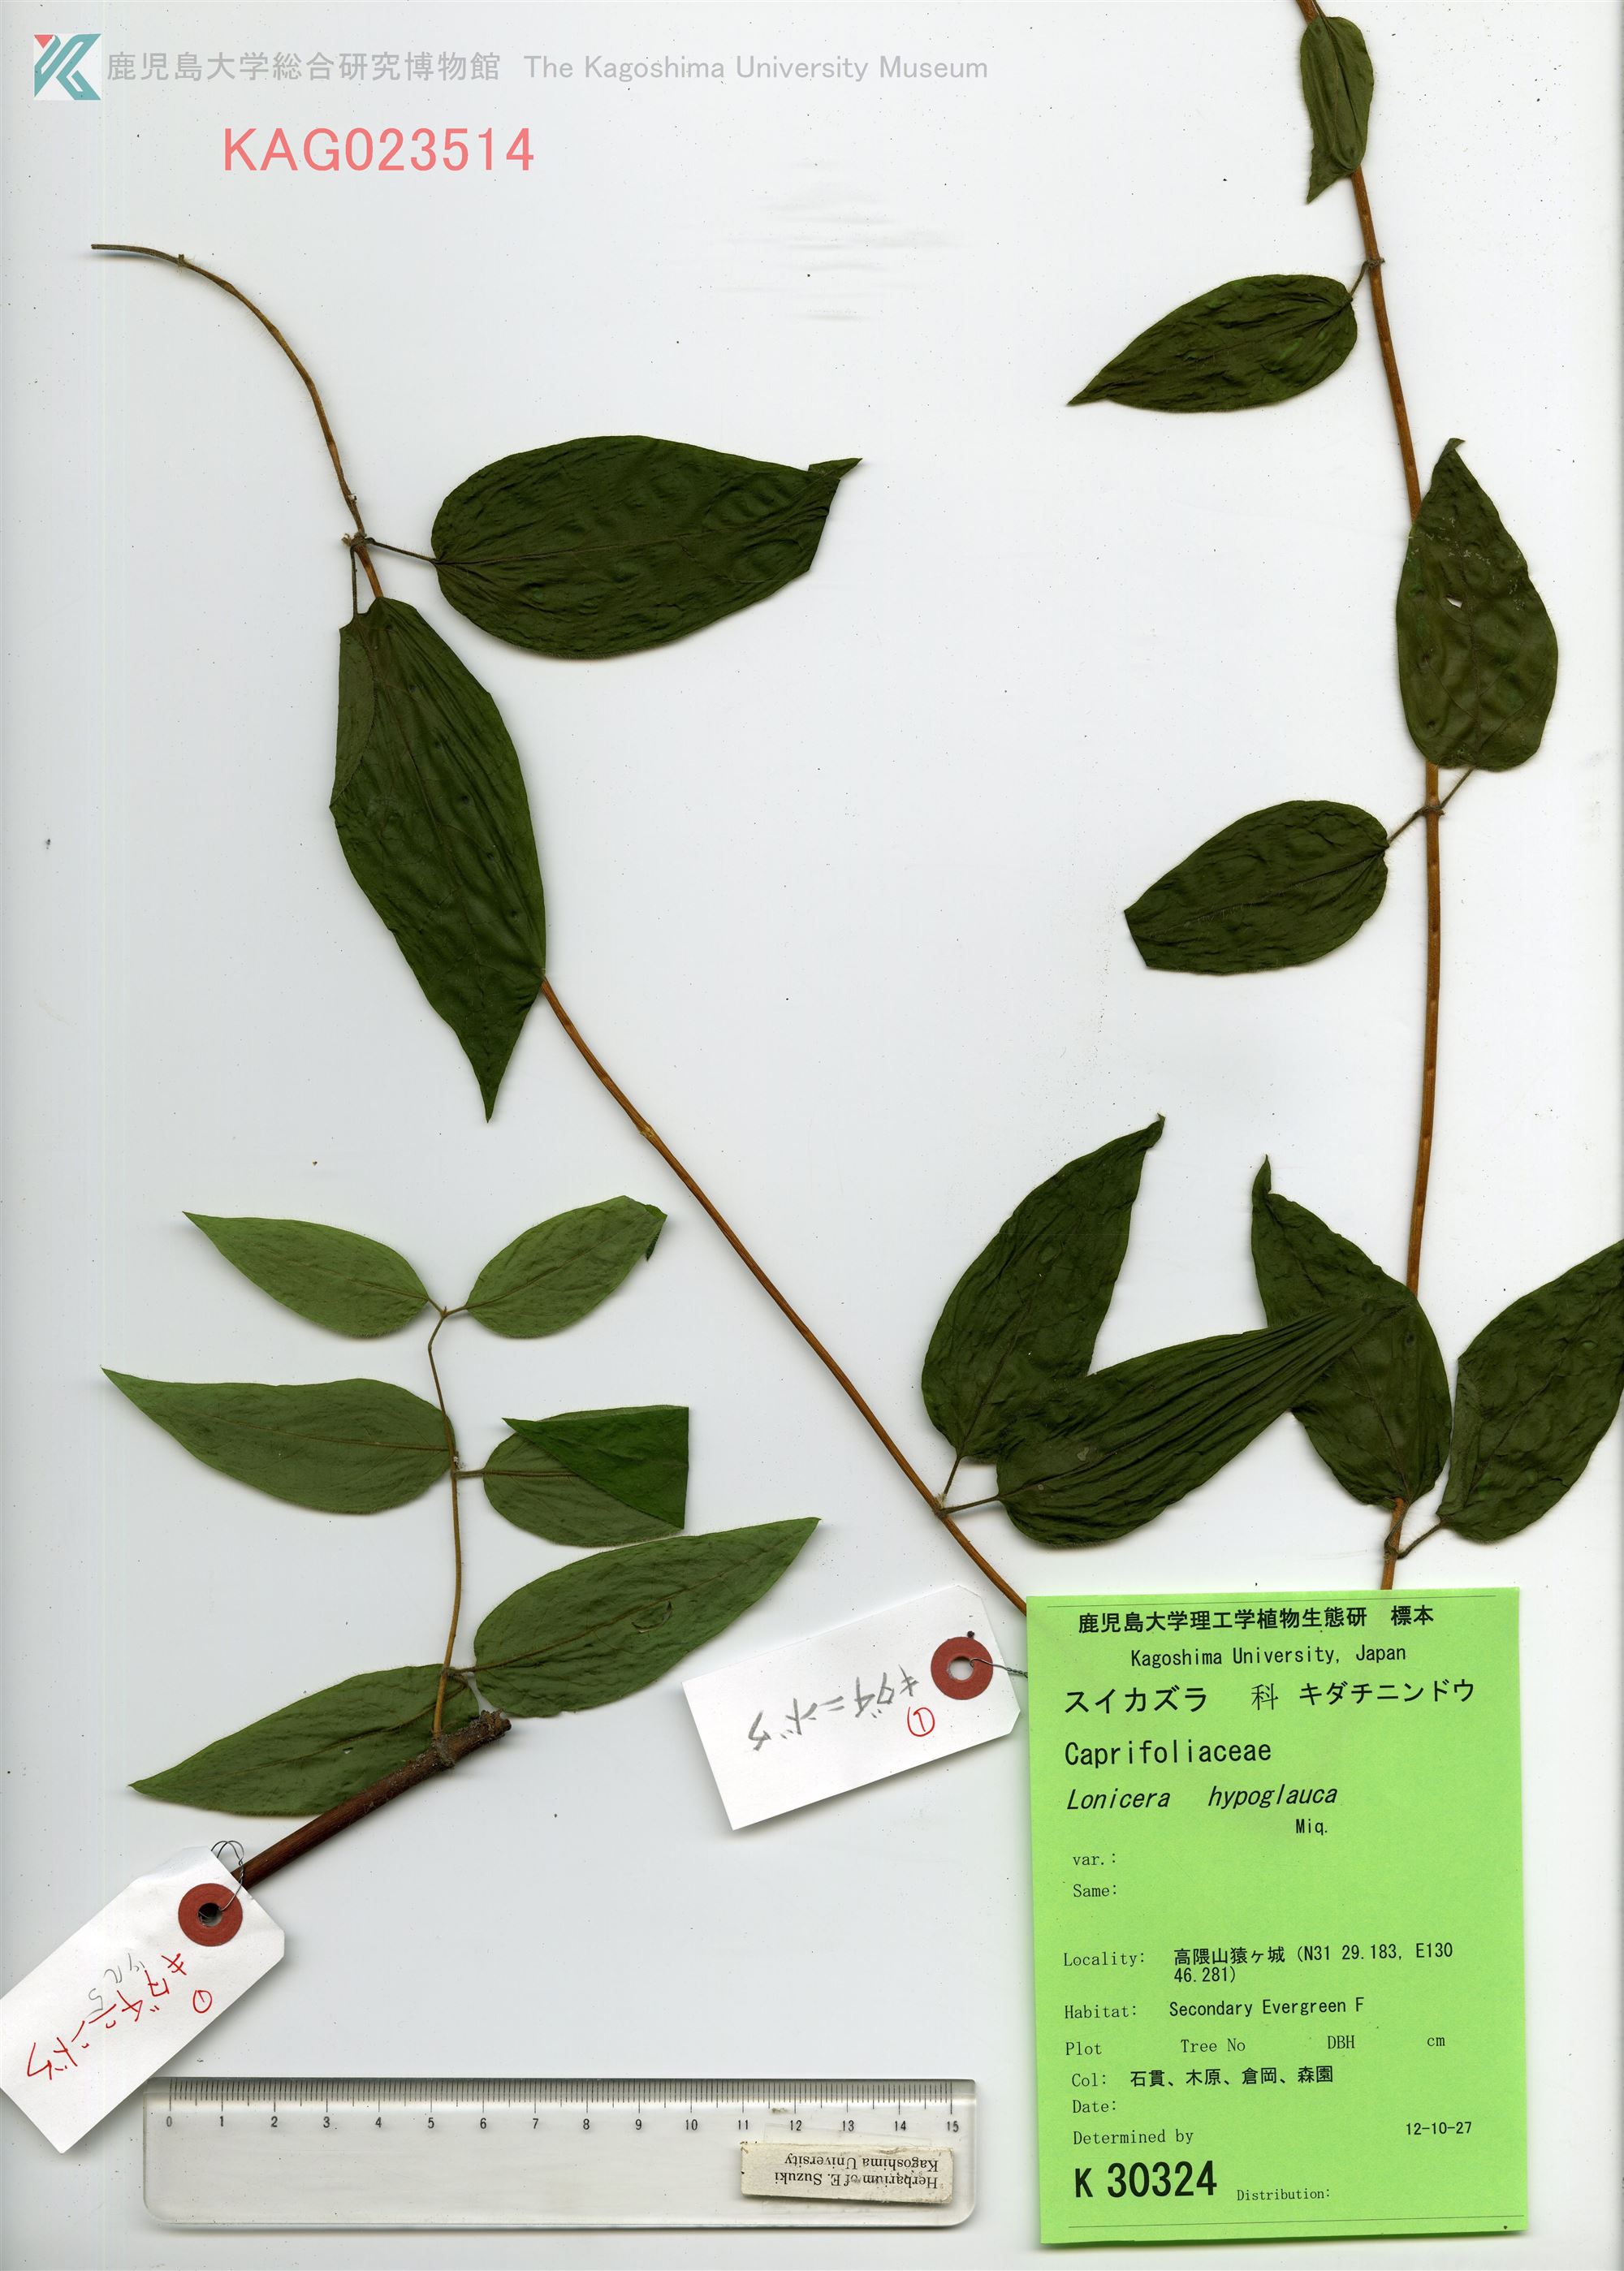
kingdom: Plantae
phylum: Tracheophyta
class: Magnoliopsida
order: Dipsacales
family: Caprifoliaceae
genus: Lonicera
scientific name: Lonicera hypoglauca
